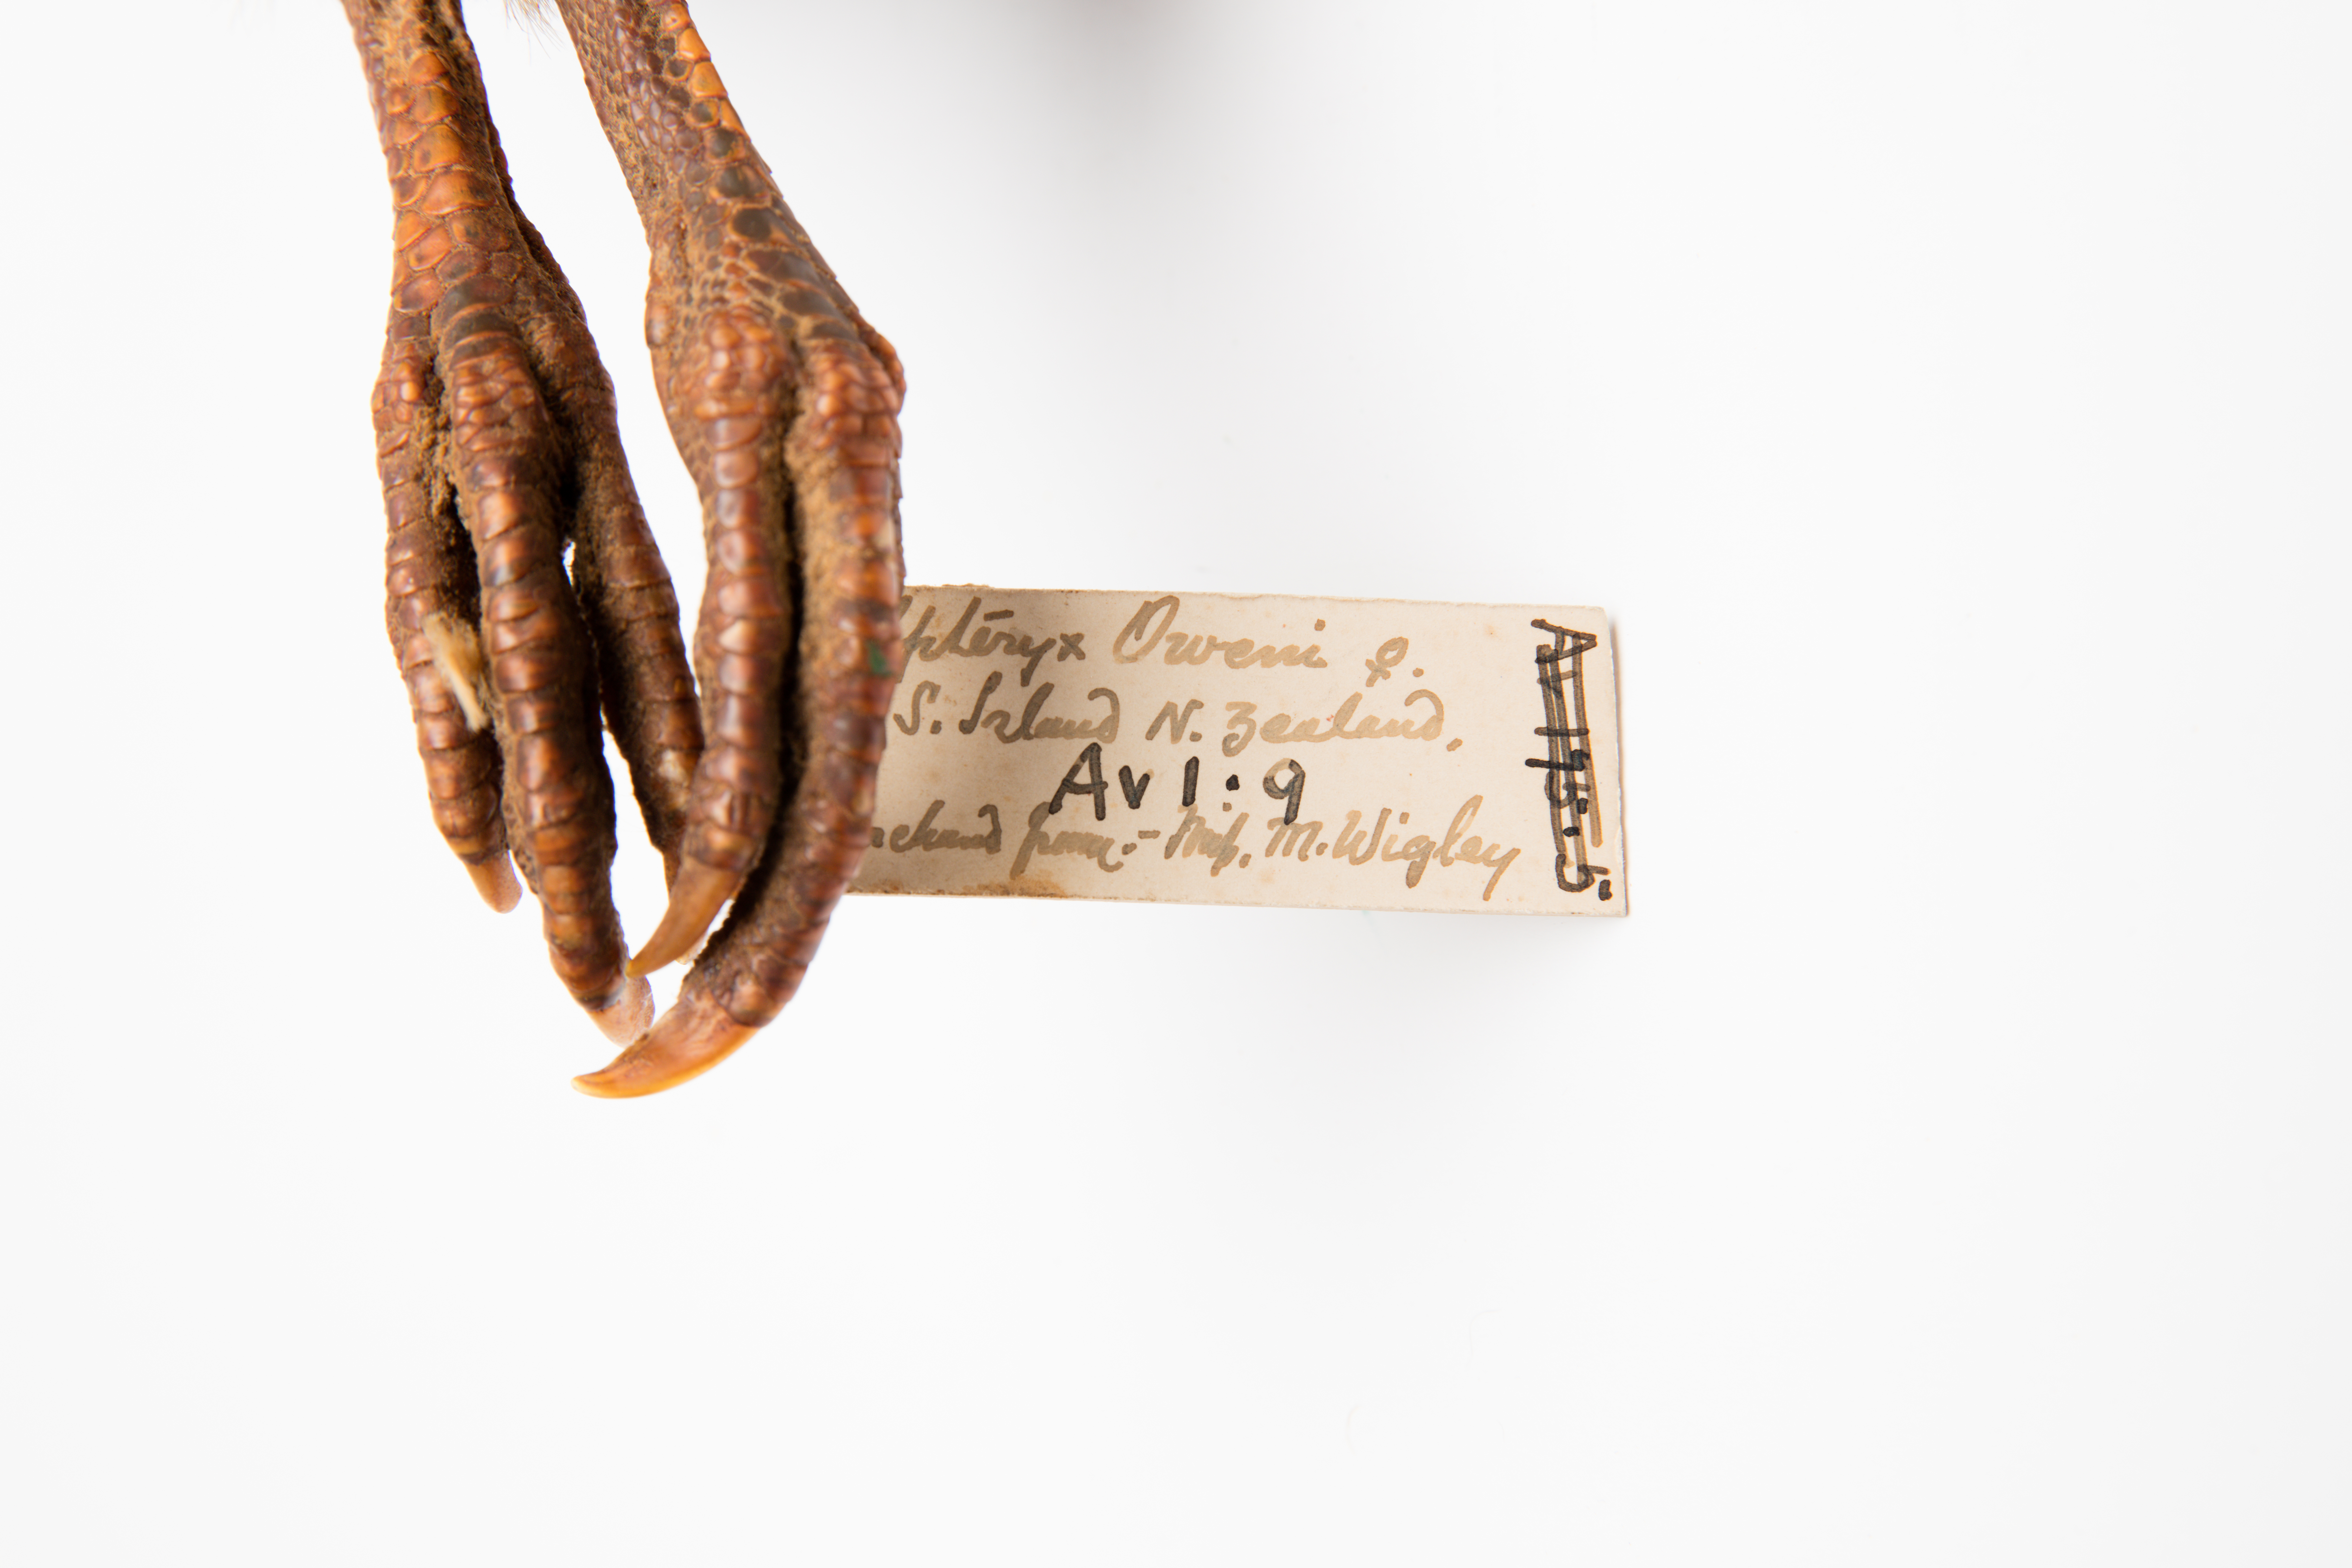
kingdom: Animalia
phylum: Chordata
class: Aves
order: Apterygiformes
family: Apterygidae
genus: Apteryx
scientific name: Apteryx owenii
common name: Little spotted kiwi
